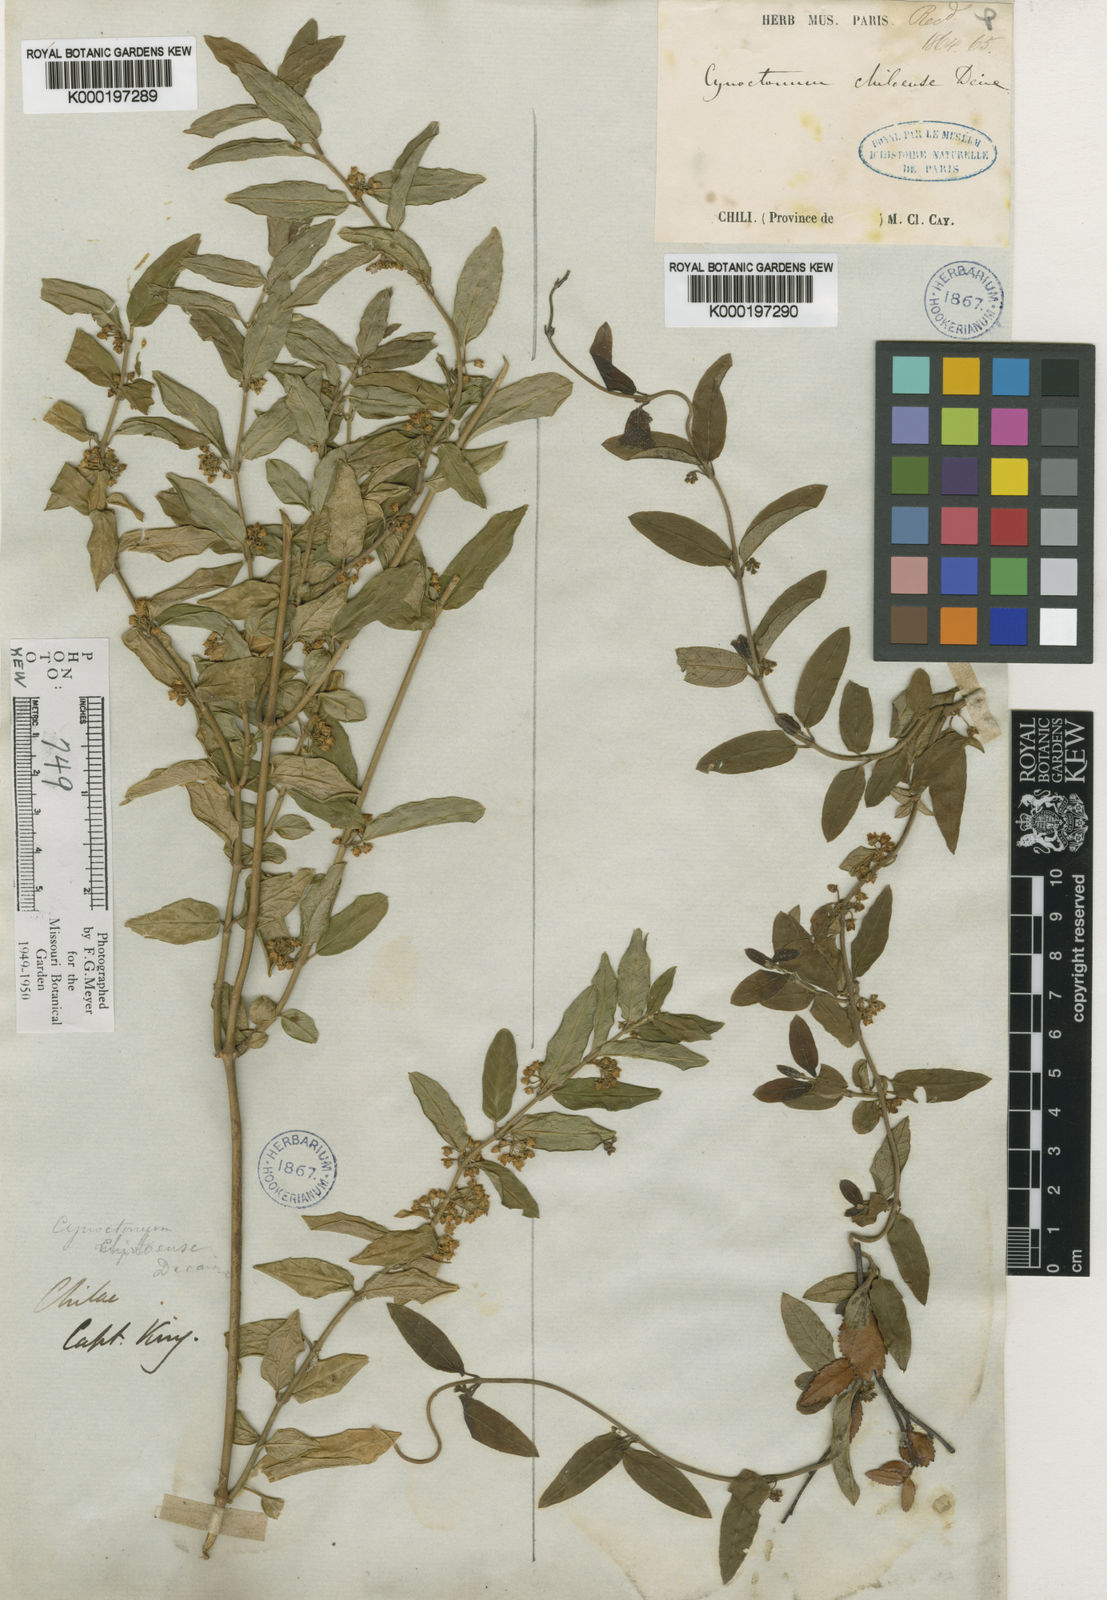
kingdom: Plantae
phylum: Tracheophyta
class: Magnoliopsida
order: Gentianales
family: Apocynaceae
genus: Diplolepis
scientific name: Diplolepis pachyphylla
